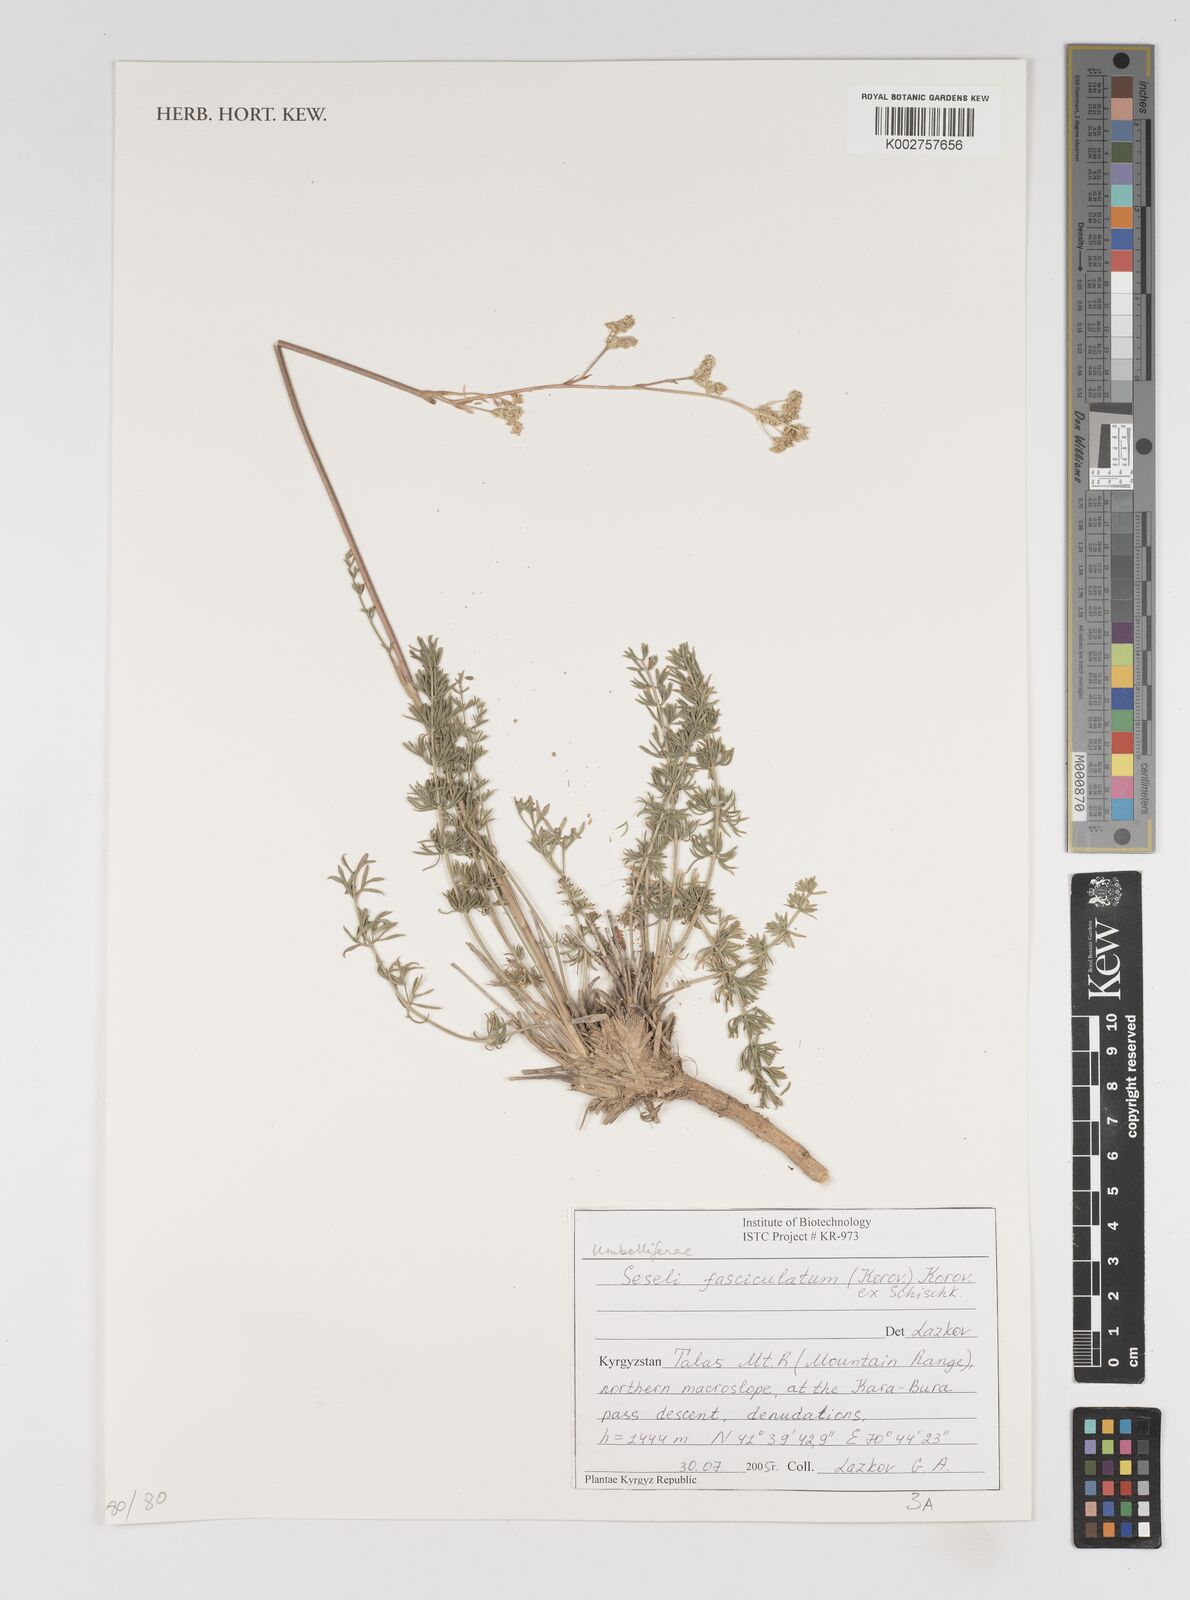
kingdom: Plantae
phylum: Tracheophyta
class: Magnoliopsida
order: Apiales
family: Apiaceae
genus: Seseli
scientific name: Seseli fasciculatum
